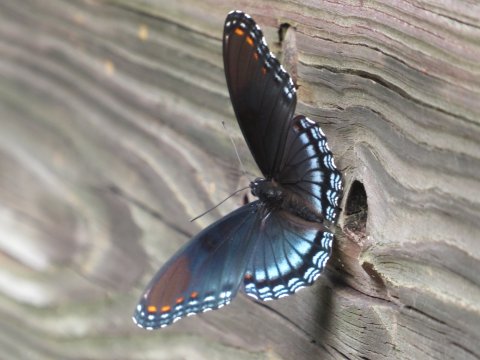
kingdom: Animalia
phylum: Arthropoda
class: Insecta
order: Lepidoptera
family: Nymphalidae
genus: Limenitis
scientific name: Limenitis arthemis
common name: Red-spotted Admiral
